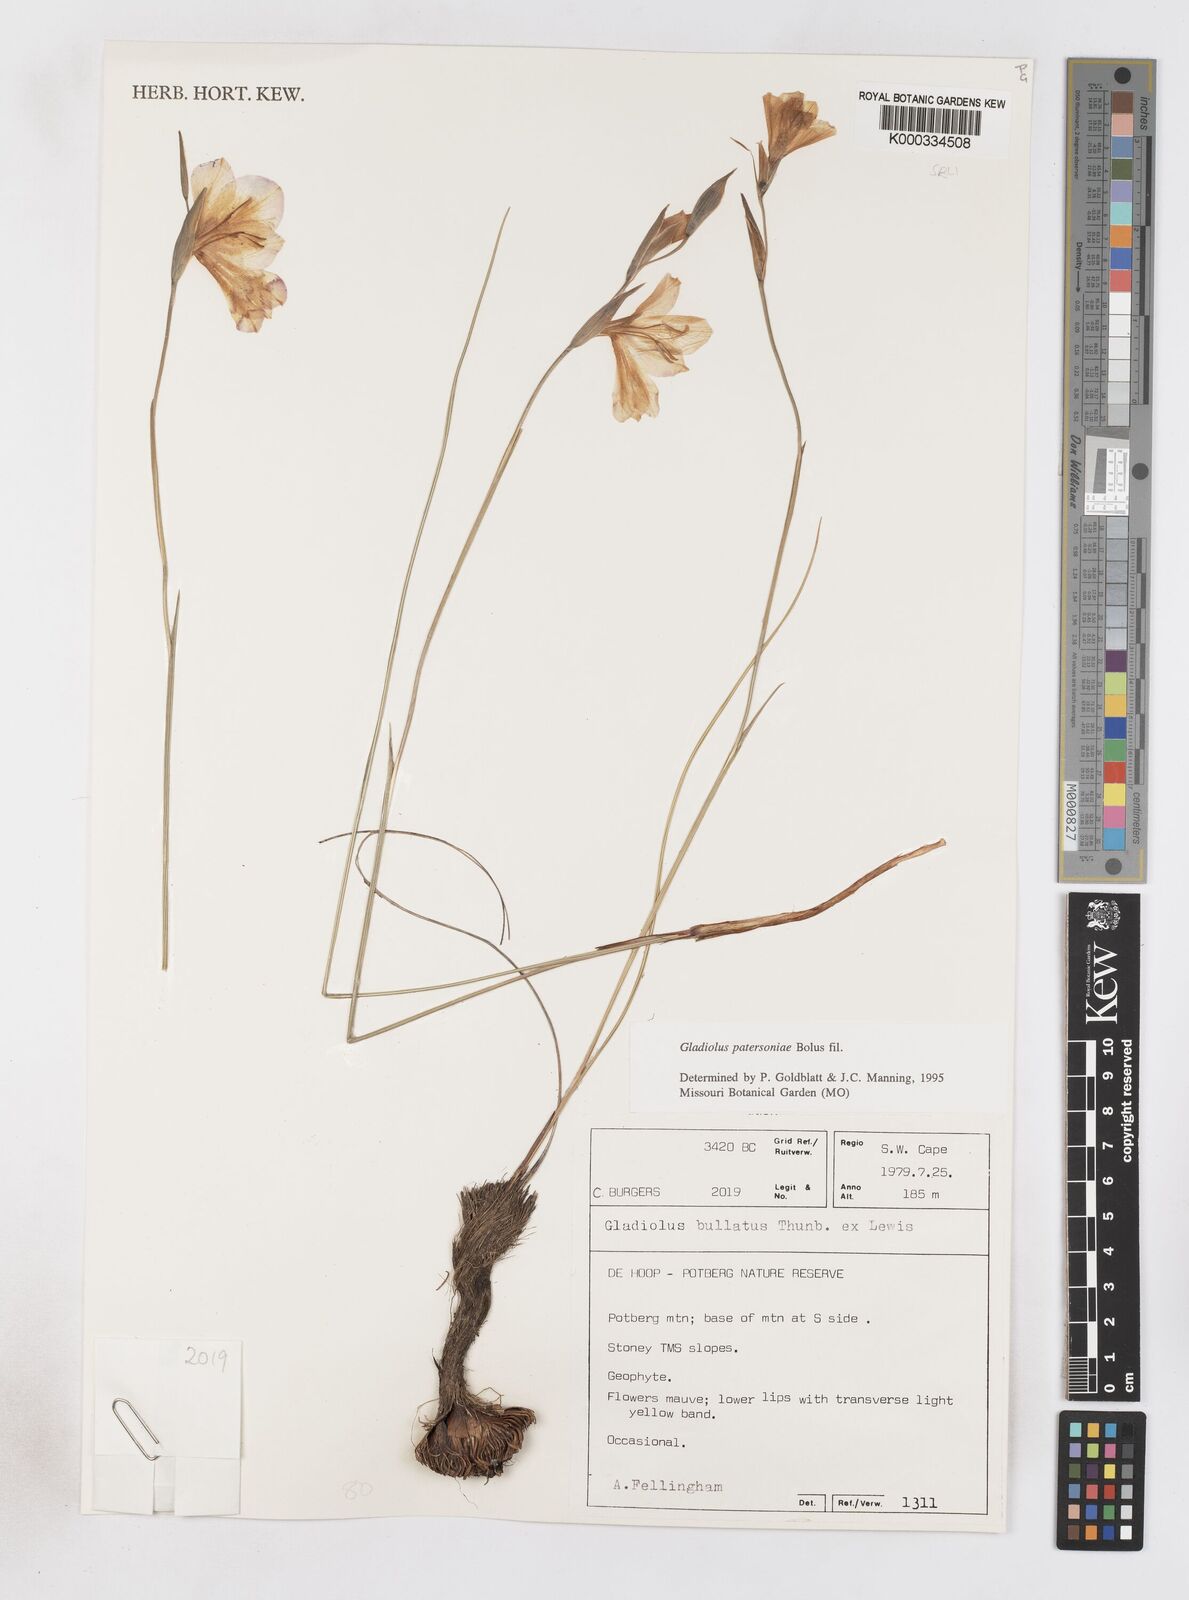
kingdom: Plantae
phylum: Tracheophyta
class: Liliopsida
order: Asparagales
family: Iridaceae
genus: Gladiolus
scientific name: Gladiolus patersoniae
